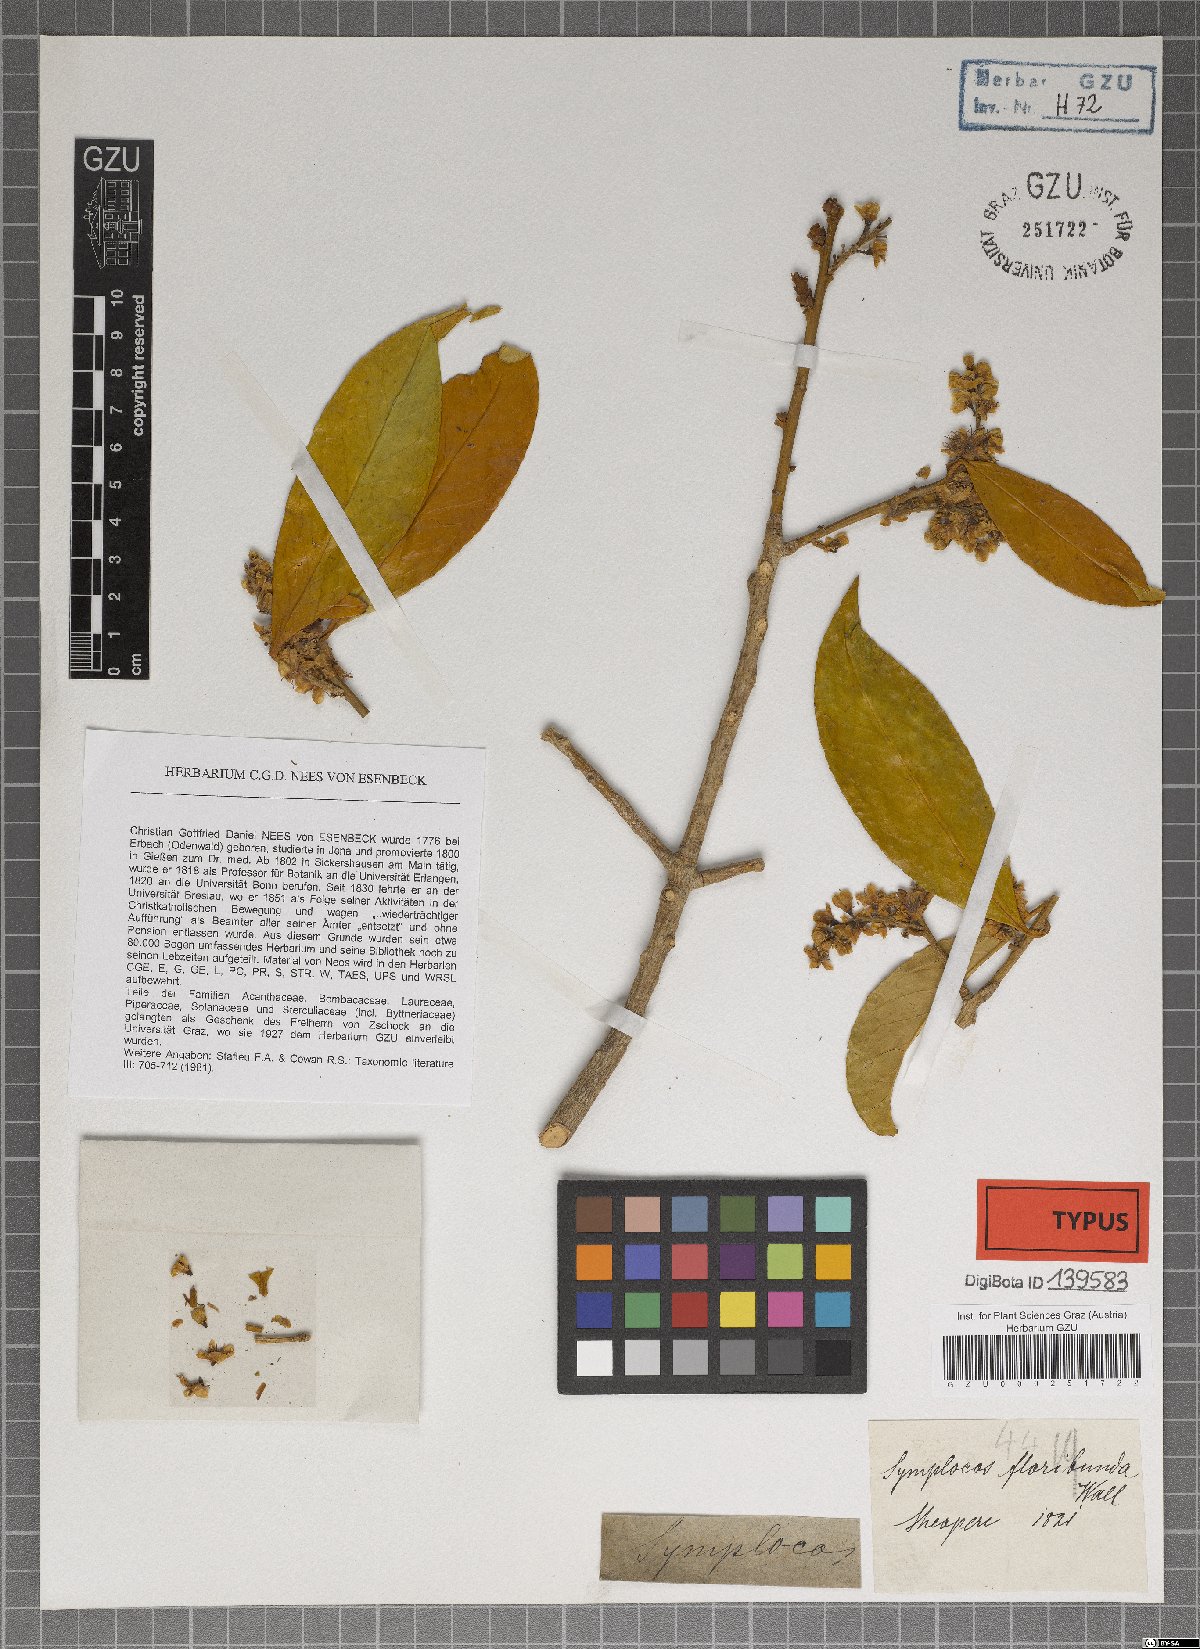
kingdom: Plantae
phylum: Tracheophyta
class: Magnoliopsida
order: Ericales
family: Symplocaceae
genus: Symplocos
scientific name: Symplocos sumuntia
